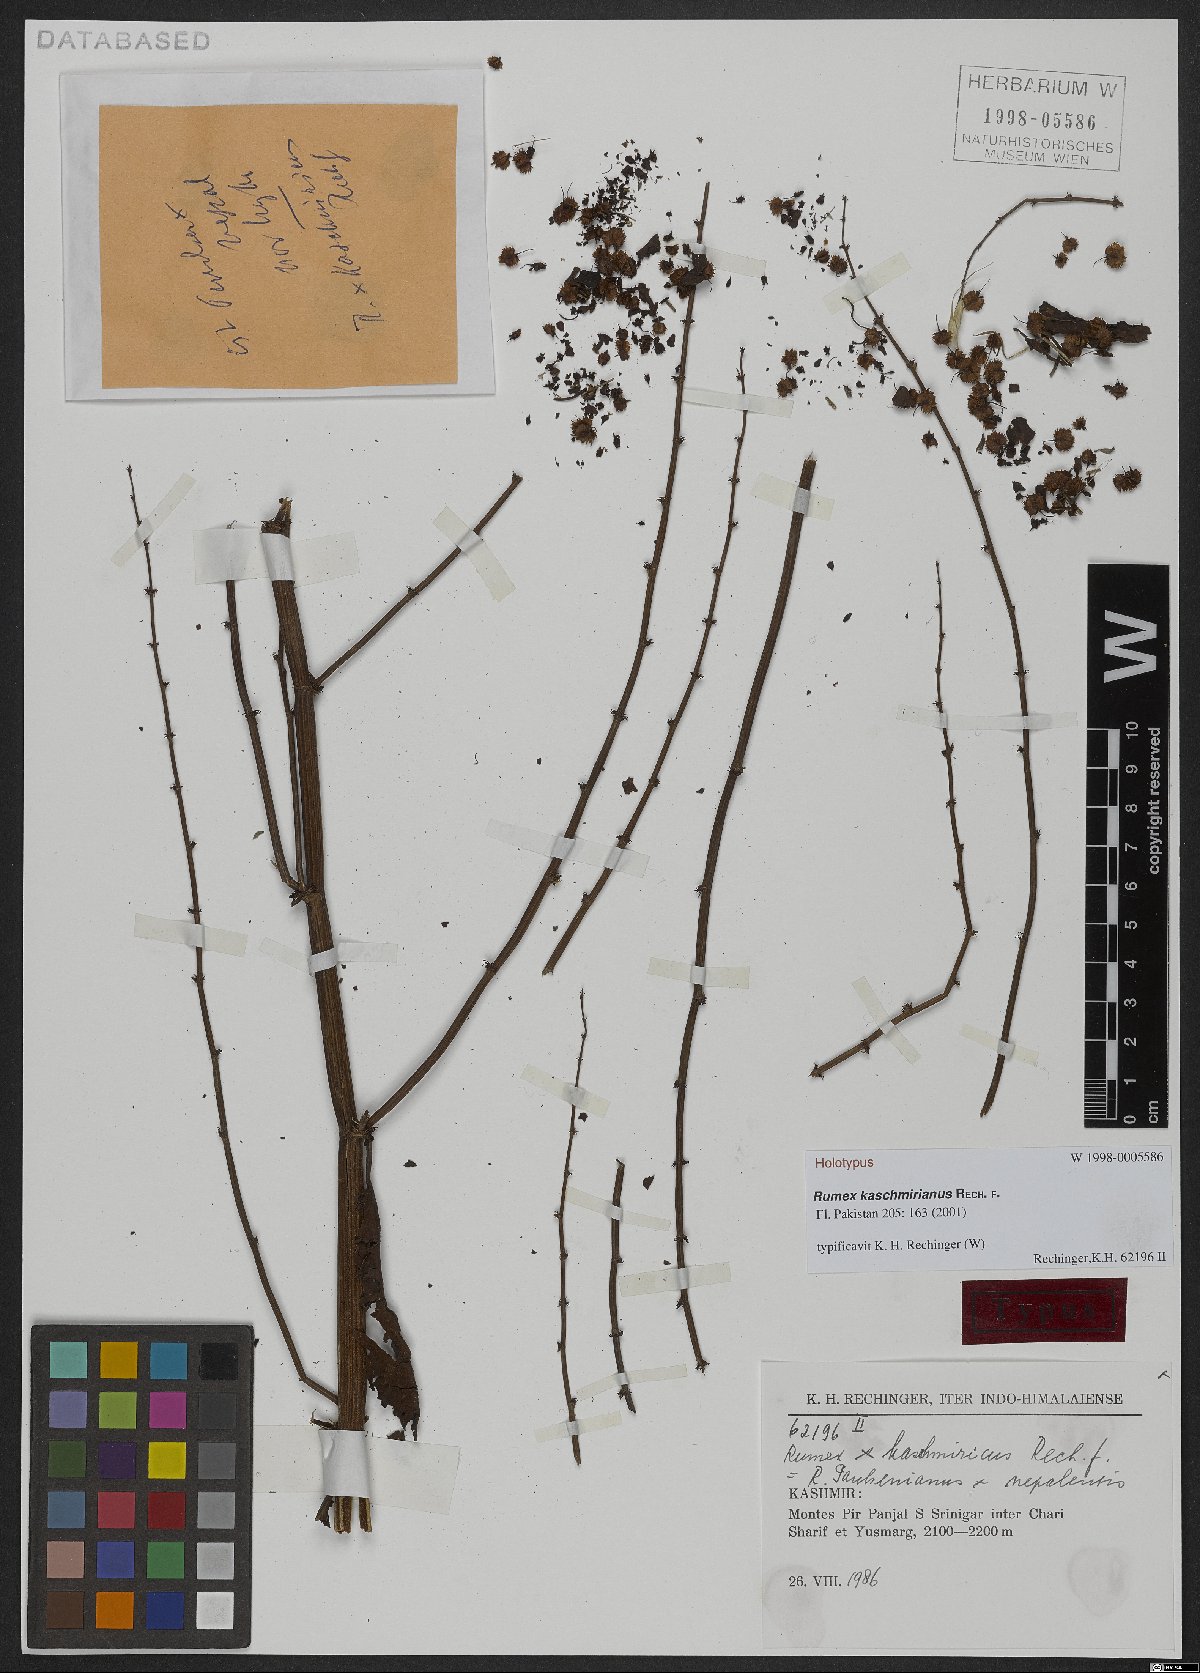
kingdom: Plantae
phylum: Tracheophyta
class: Magnoliopsida
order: Caryophyllales
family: Polygonaceae
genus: Rumex
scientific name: Rumex kaschmirianus
